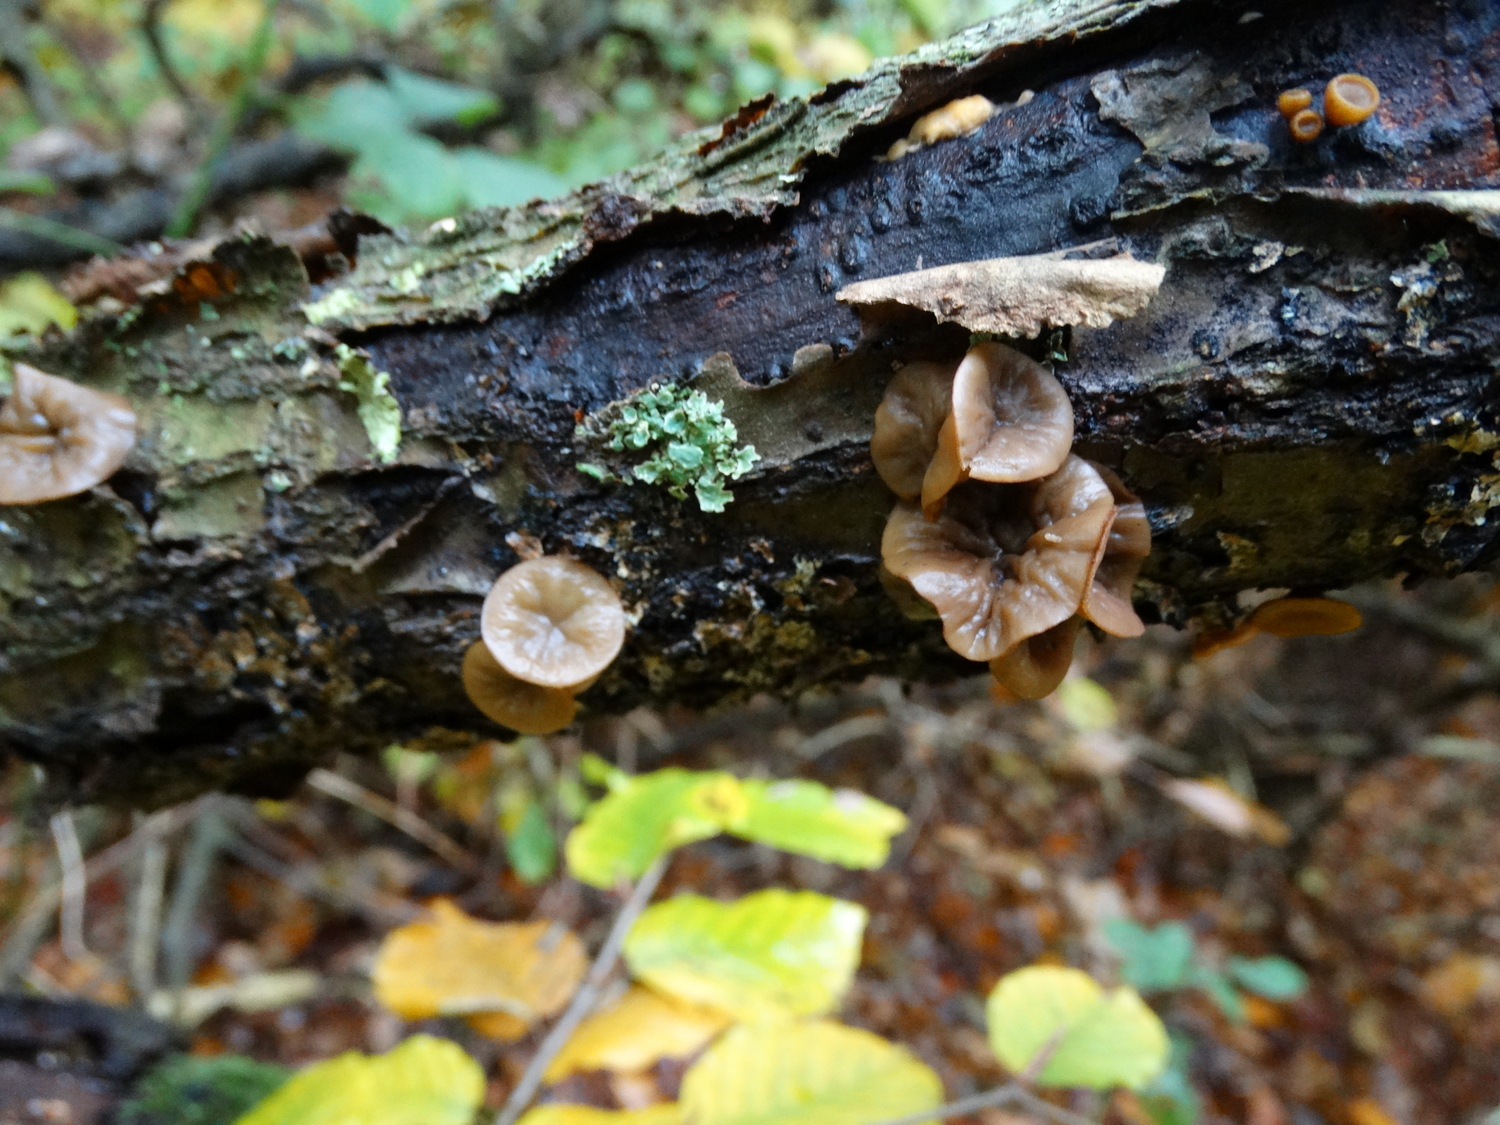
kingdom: Fungi
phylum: Ascomycota
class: Leotiomycetes
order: Helotiales
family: Rutstroemiaceae
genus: Rutstroemia
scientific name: Rutstroemia firma
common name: gren-brunskive
